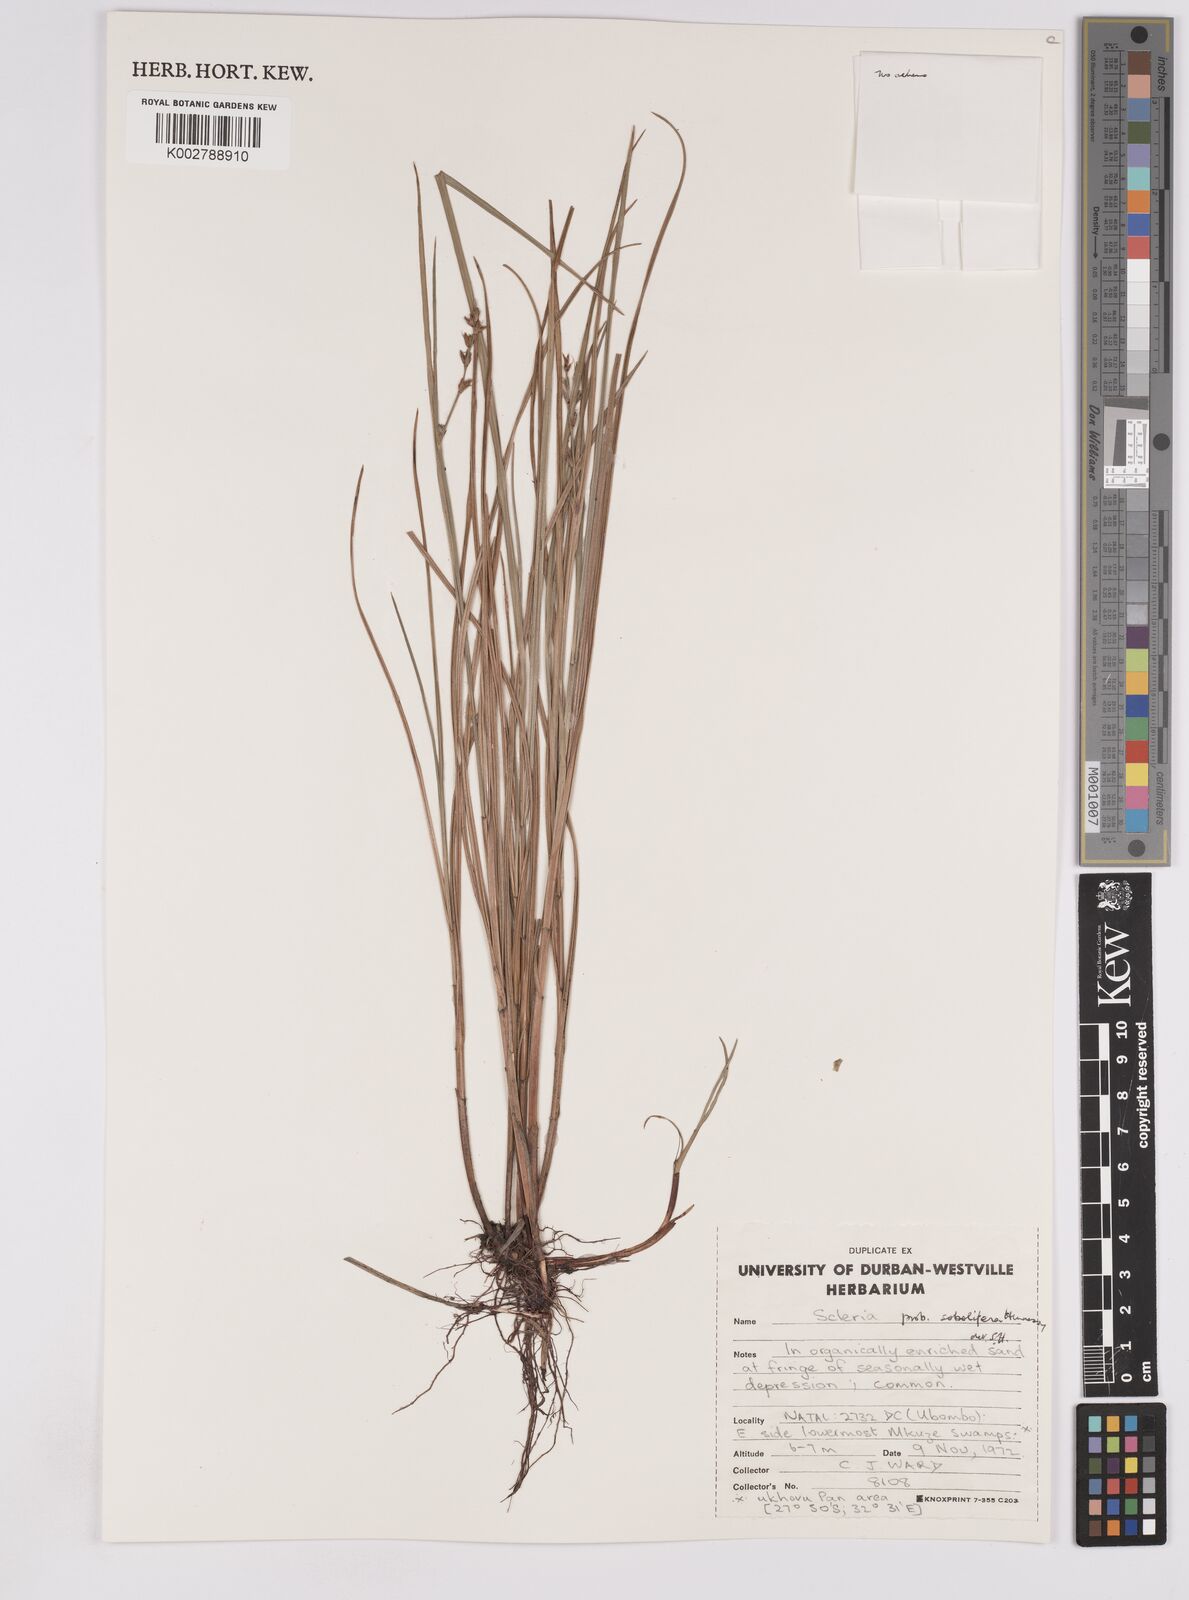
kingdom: Plantae
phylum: Tracheophyta
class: Liliopsida
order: Poales
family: Cyperaceae
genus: Scleria
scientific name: Scleria sobolifera
